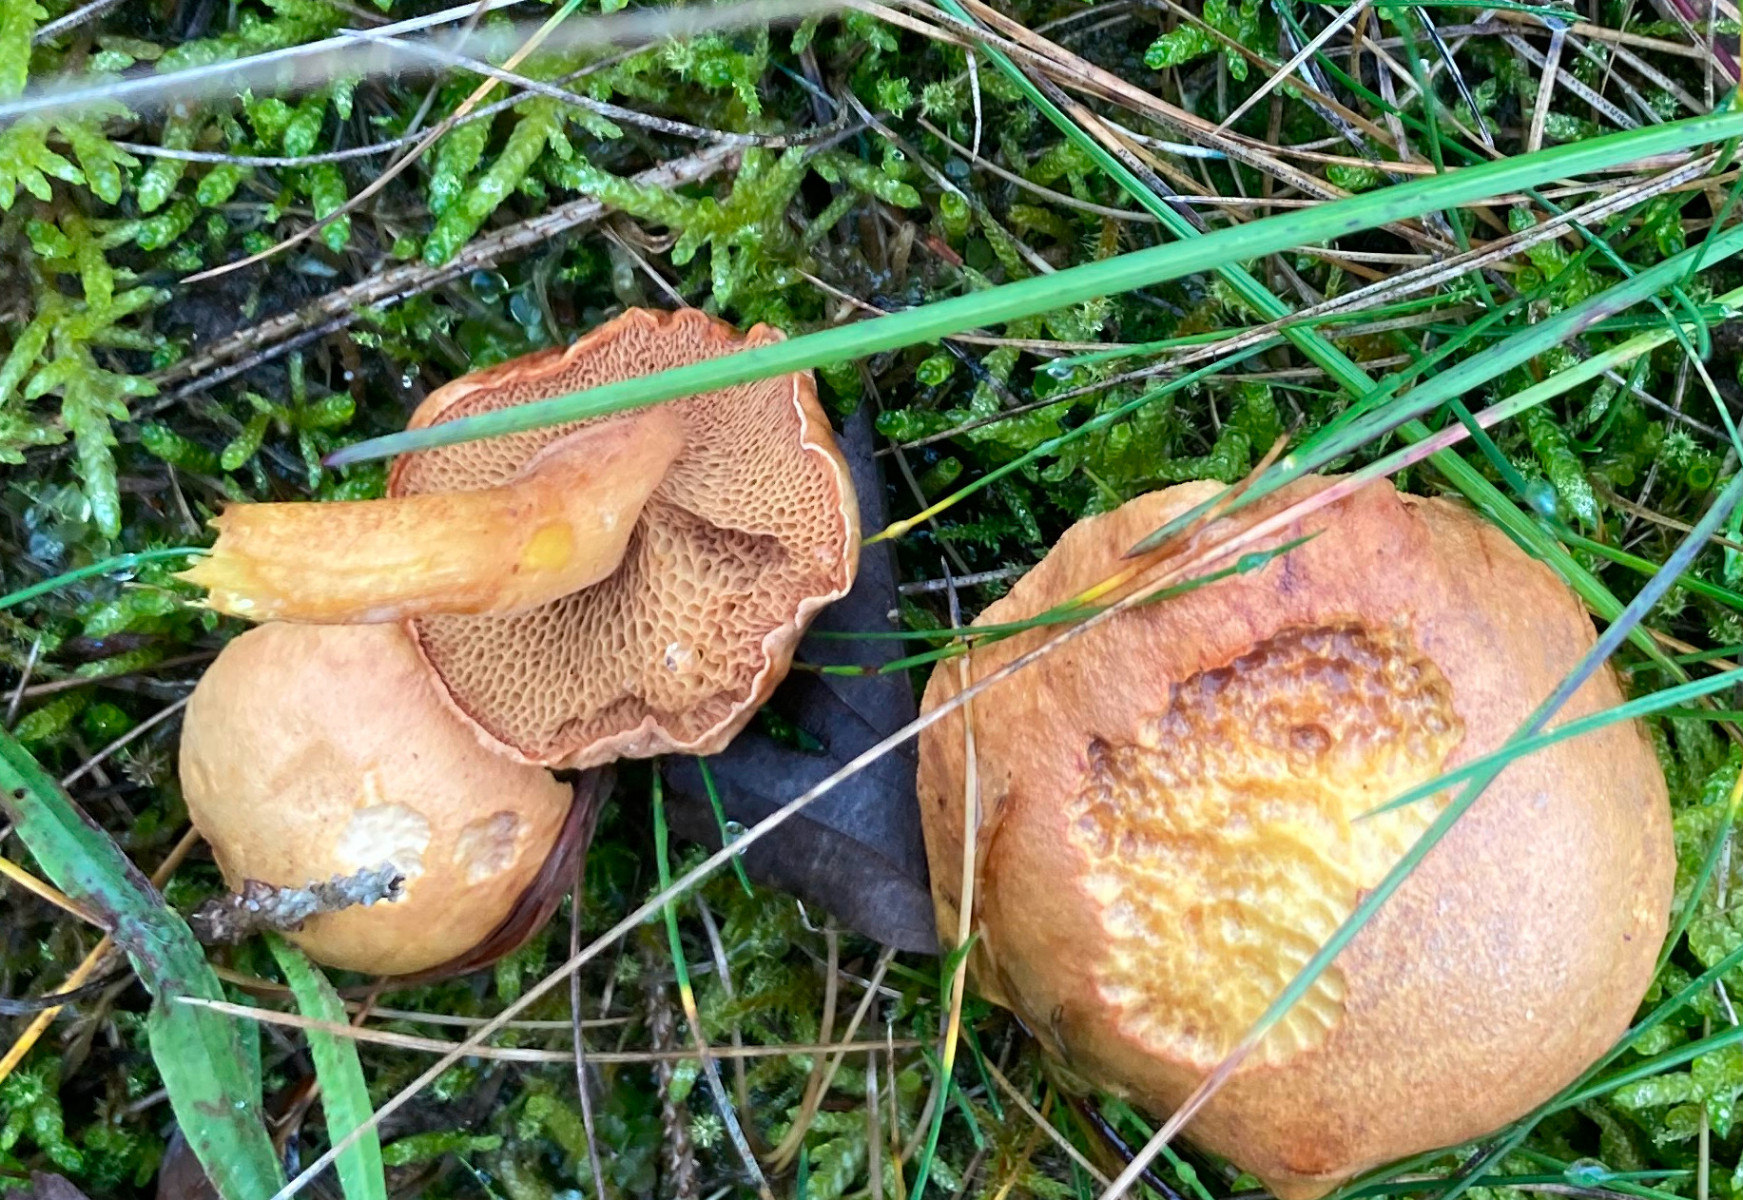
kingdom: Fungi
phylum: Basidiomycota
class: Agaricomycetes
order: Boletales
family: Boletaceae
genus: Chalciporus
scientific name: Chalciporus piperatus
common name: peberrørhat
